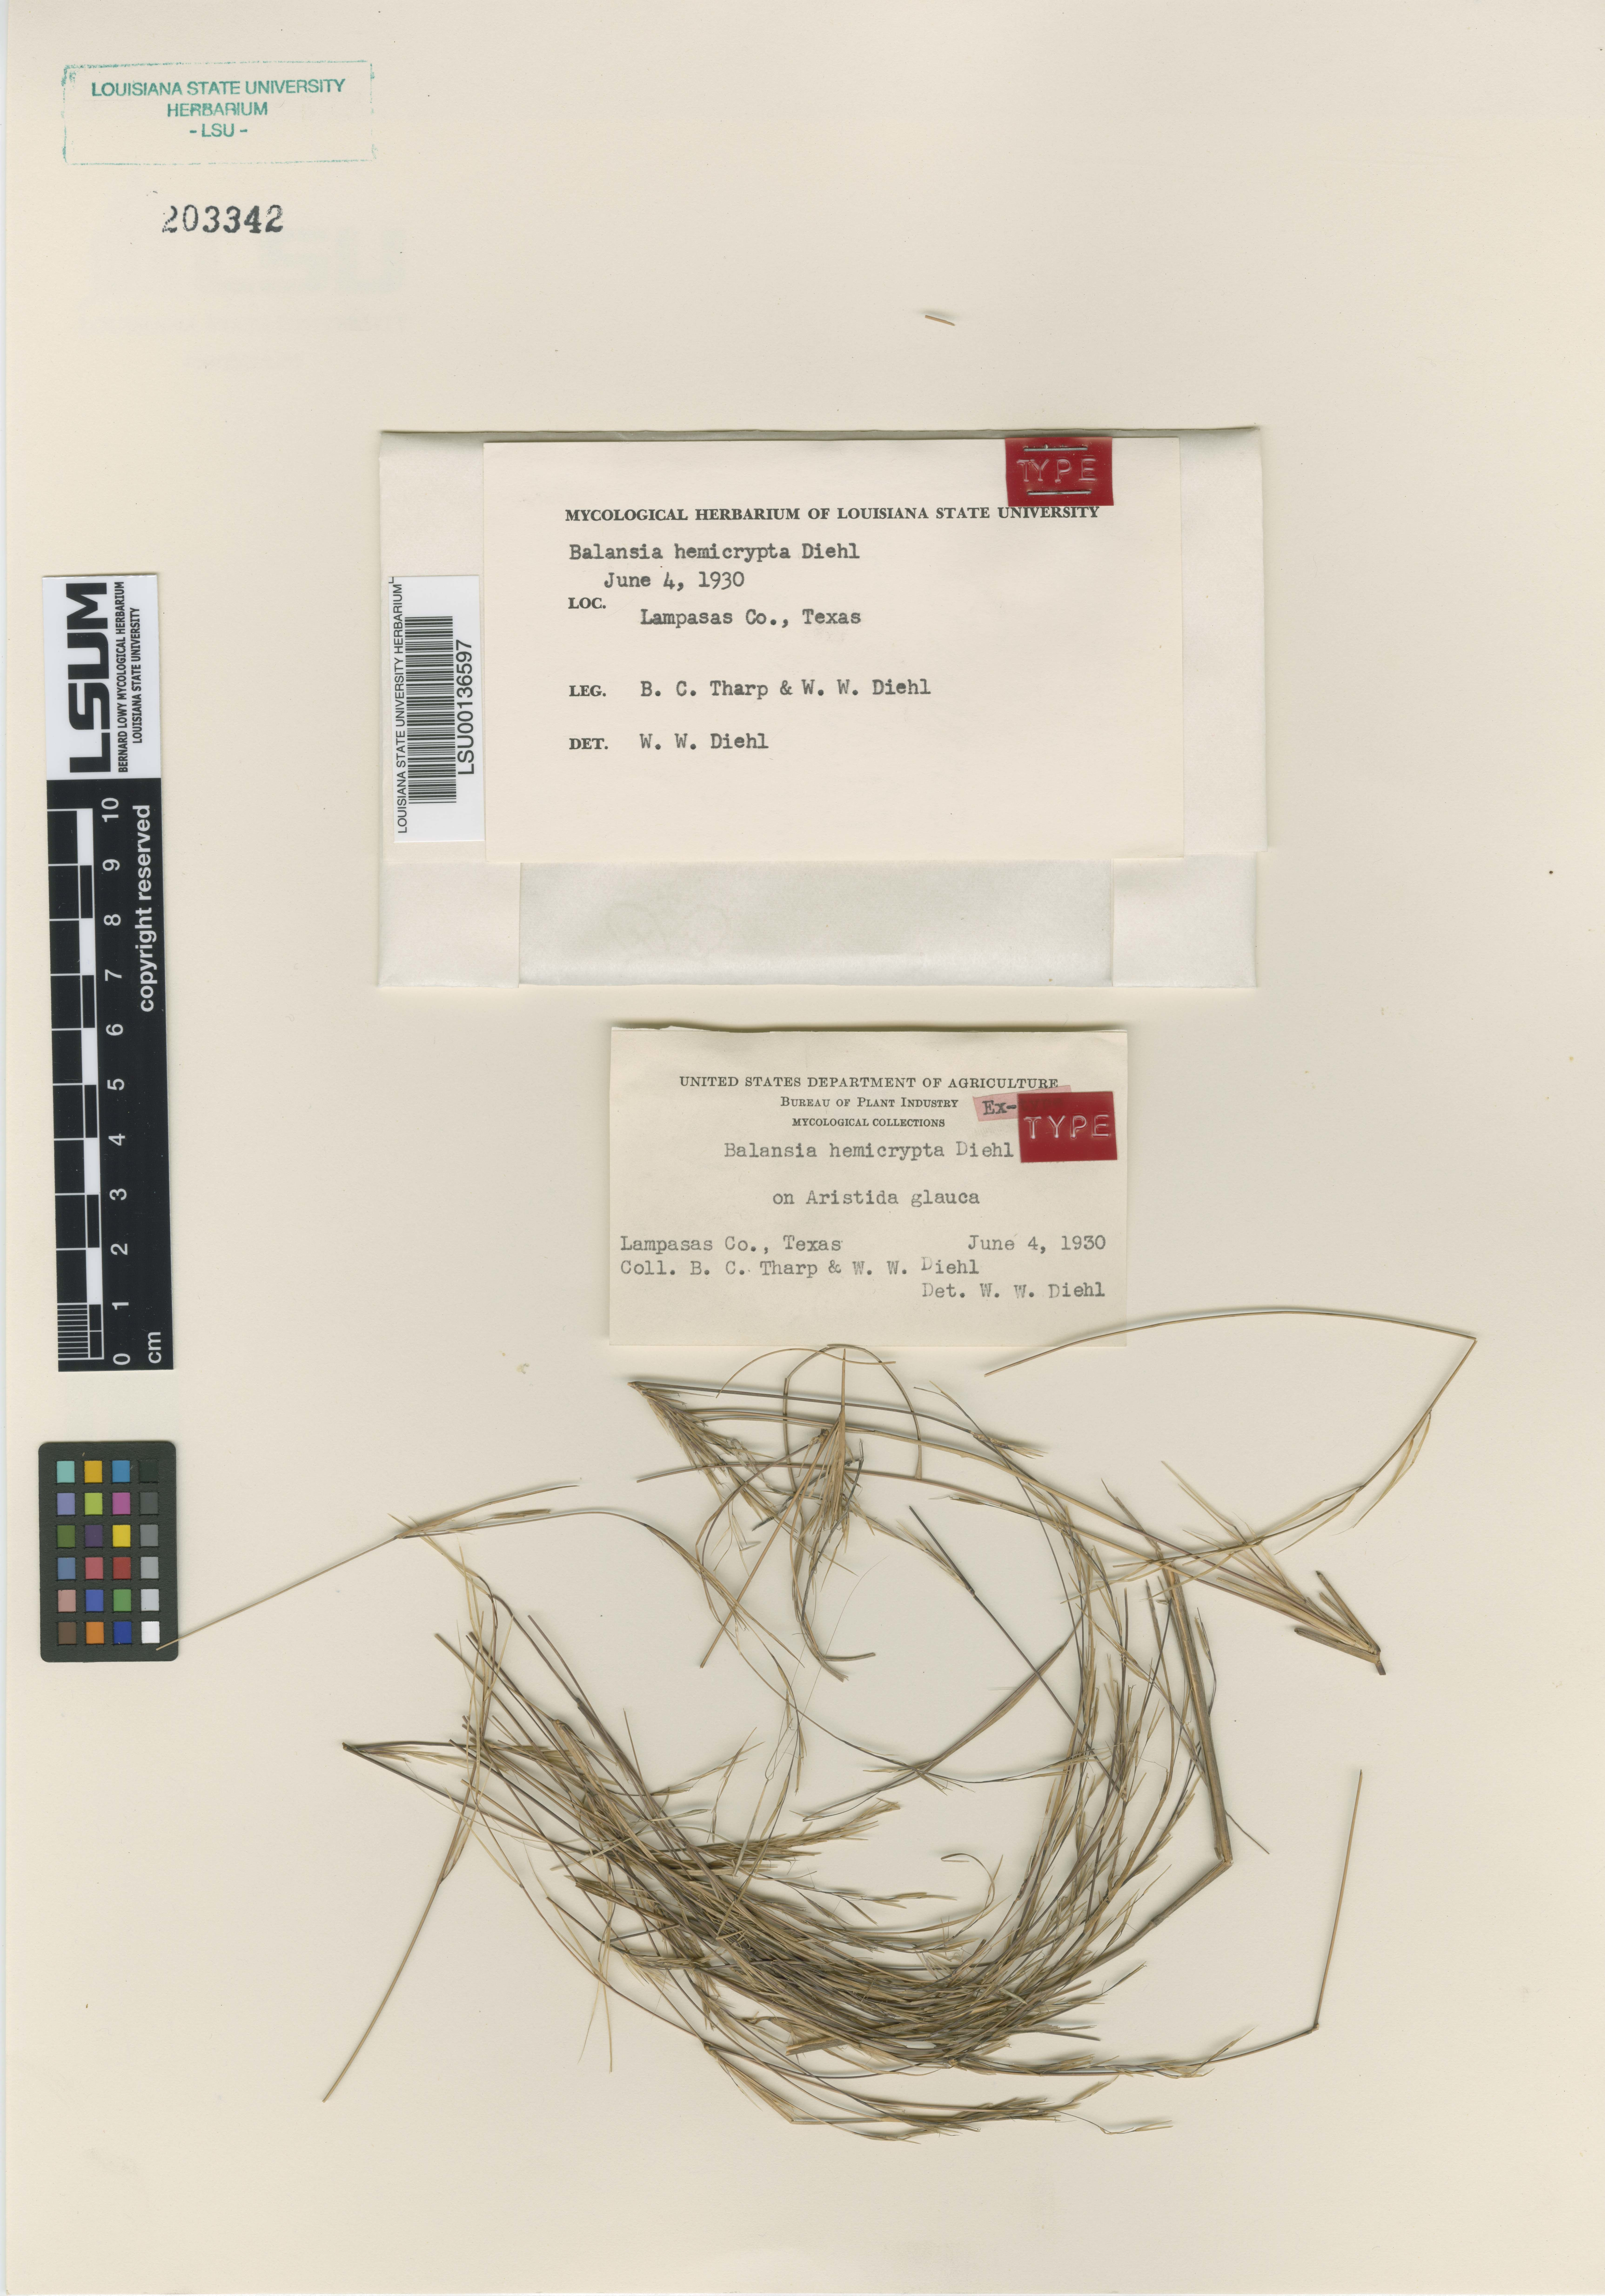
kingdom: Fungi
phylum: Ascomycota
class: Sordariomycetes
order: Hypocreales
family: Clavicipitaceae
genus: Balansia
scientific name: Balansia hemicrypta
